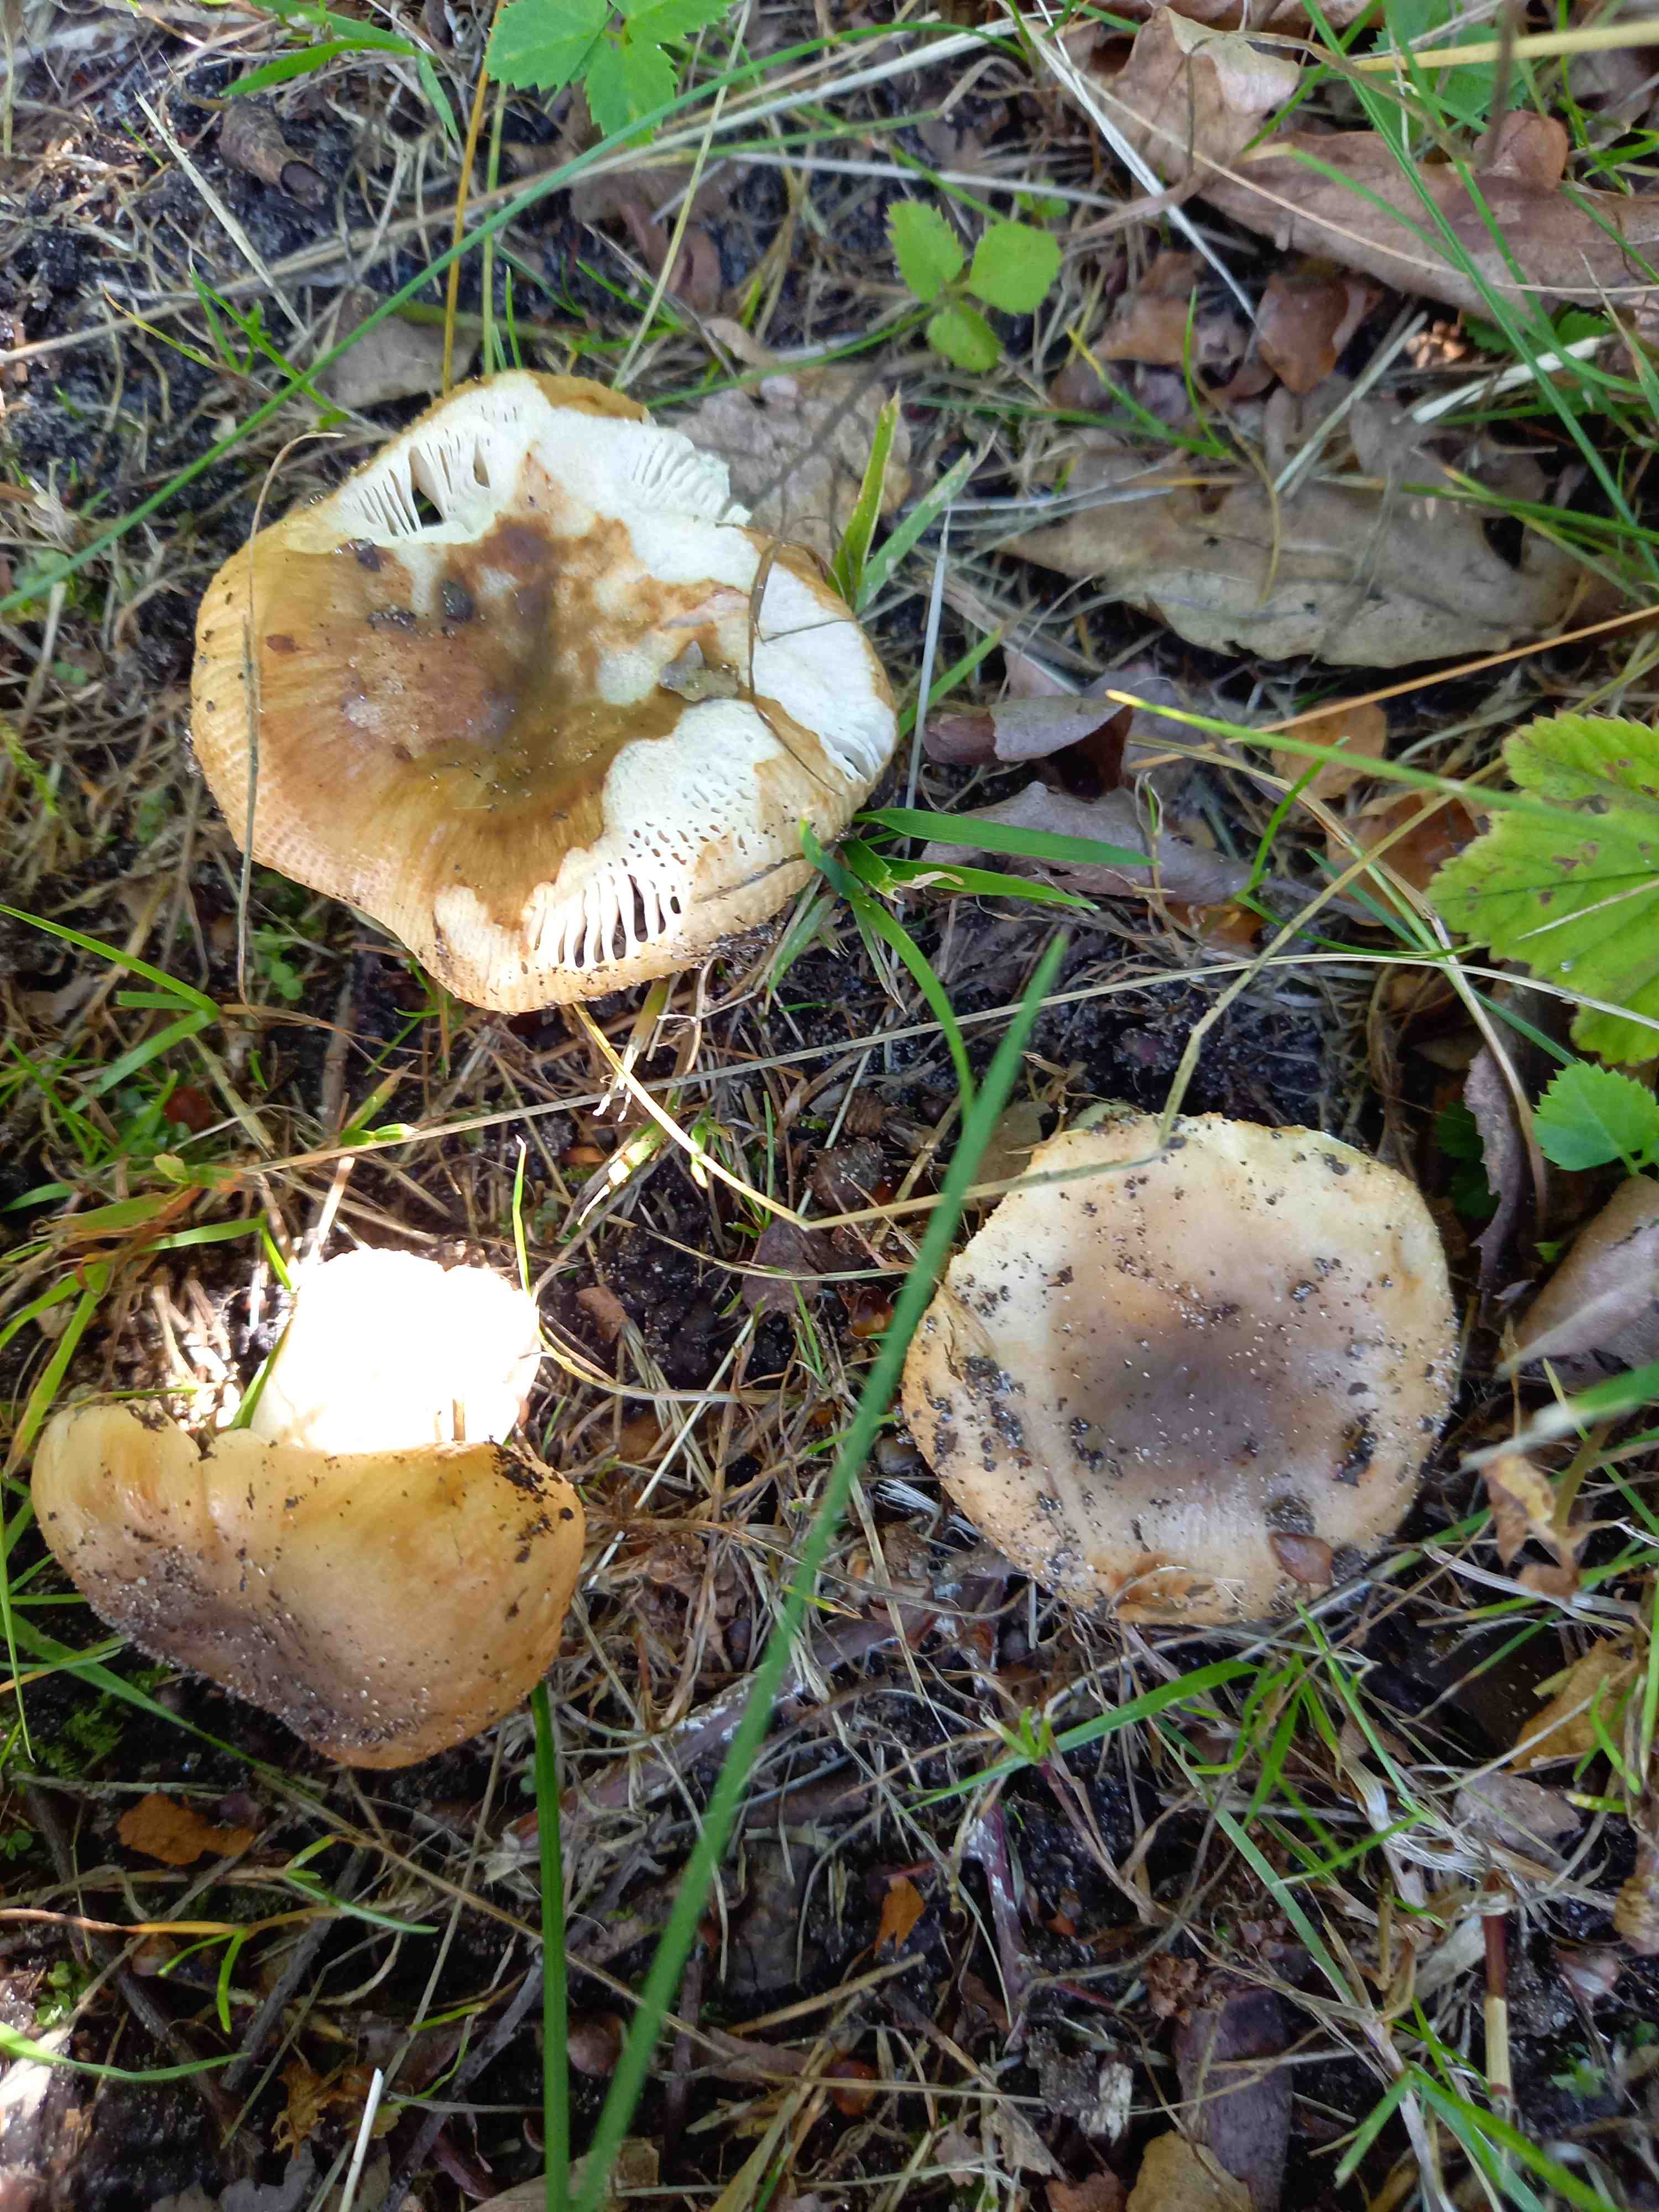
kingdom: Fungi
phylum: Basidiomycota
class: Agaricomycetes
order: Russulales
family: Russulaceae
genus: Russula
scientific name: Russula recondita
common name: mild kam-skørhat
